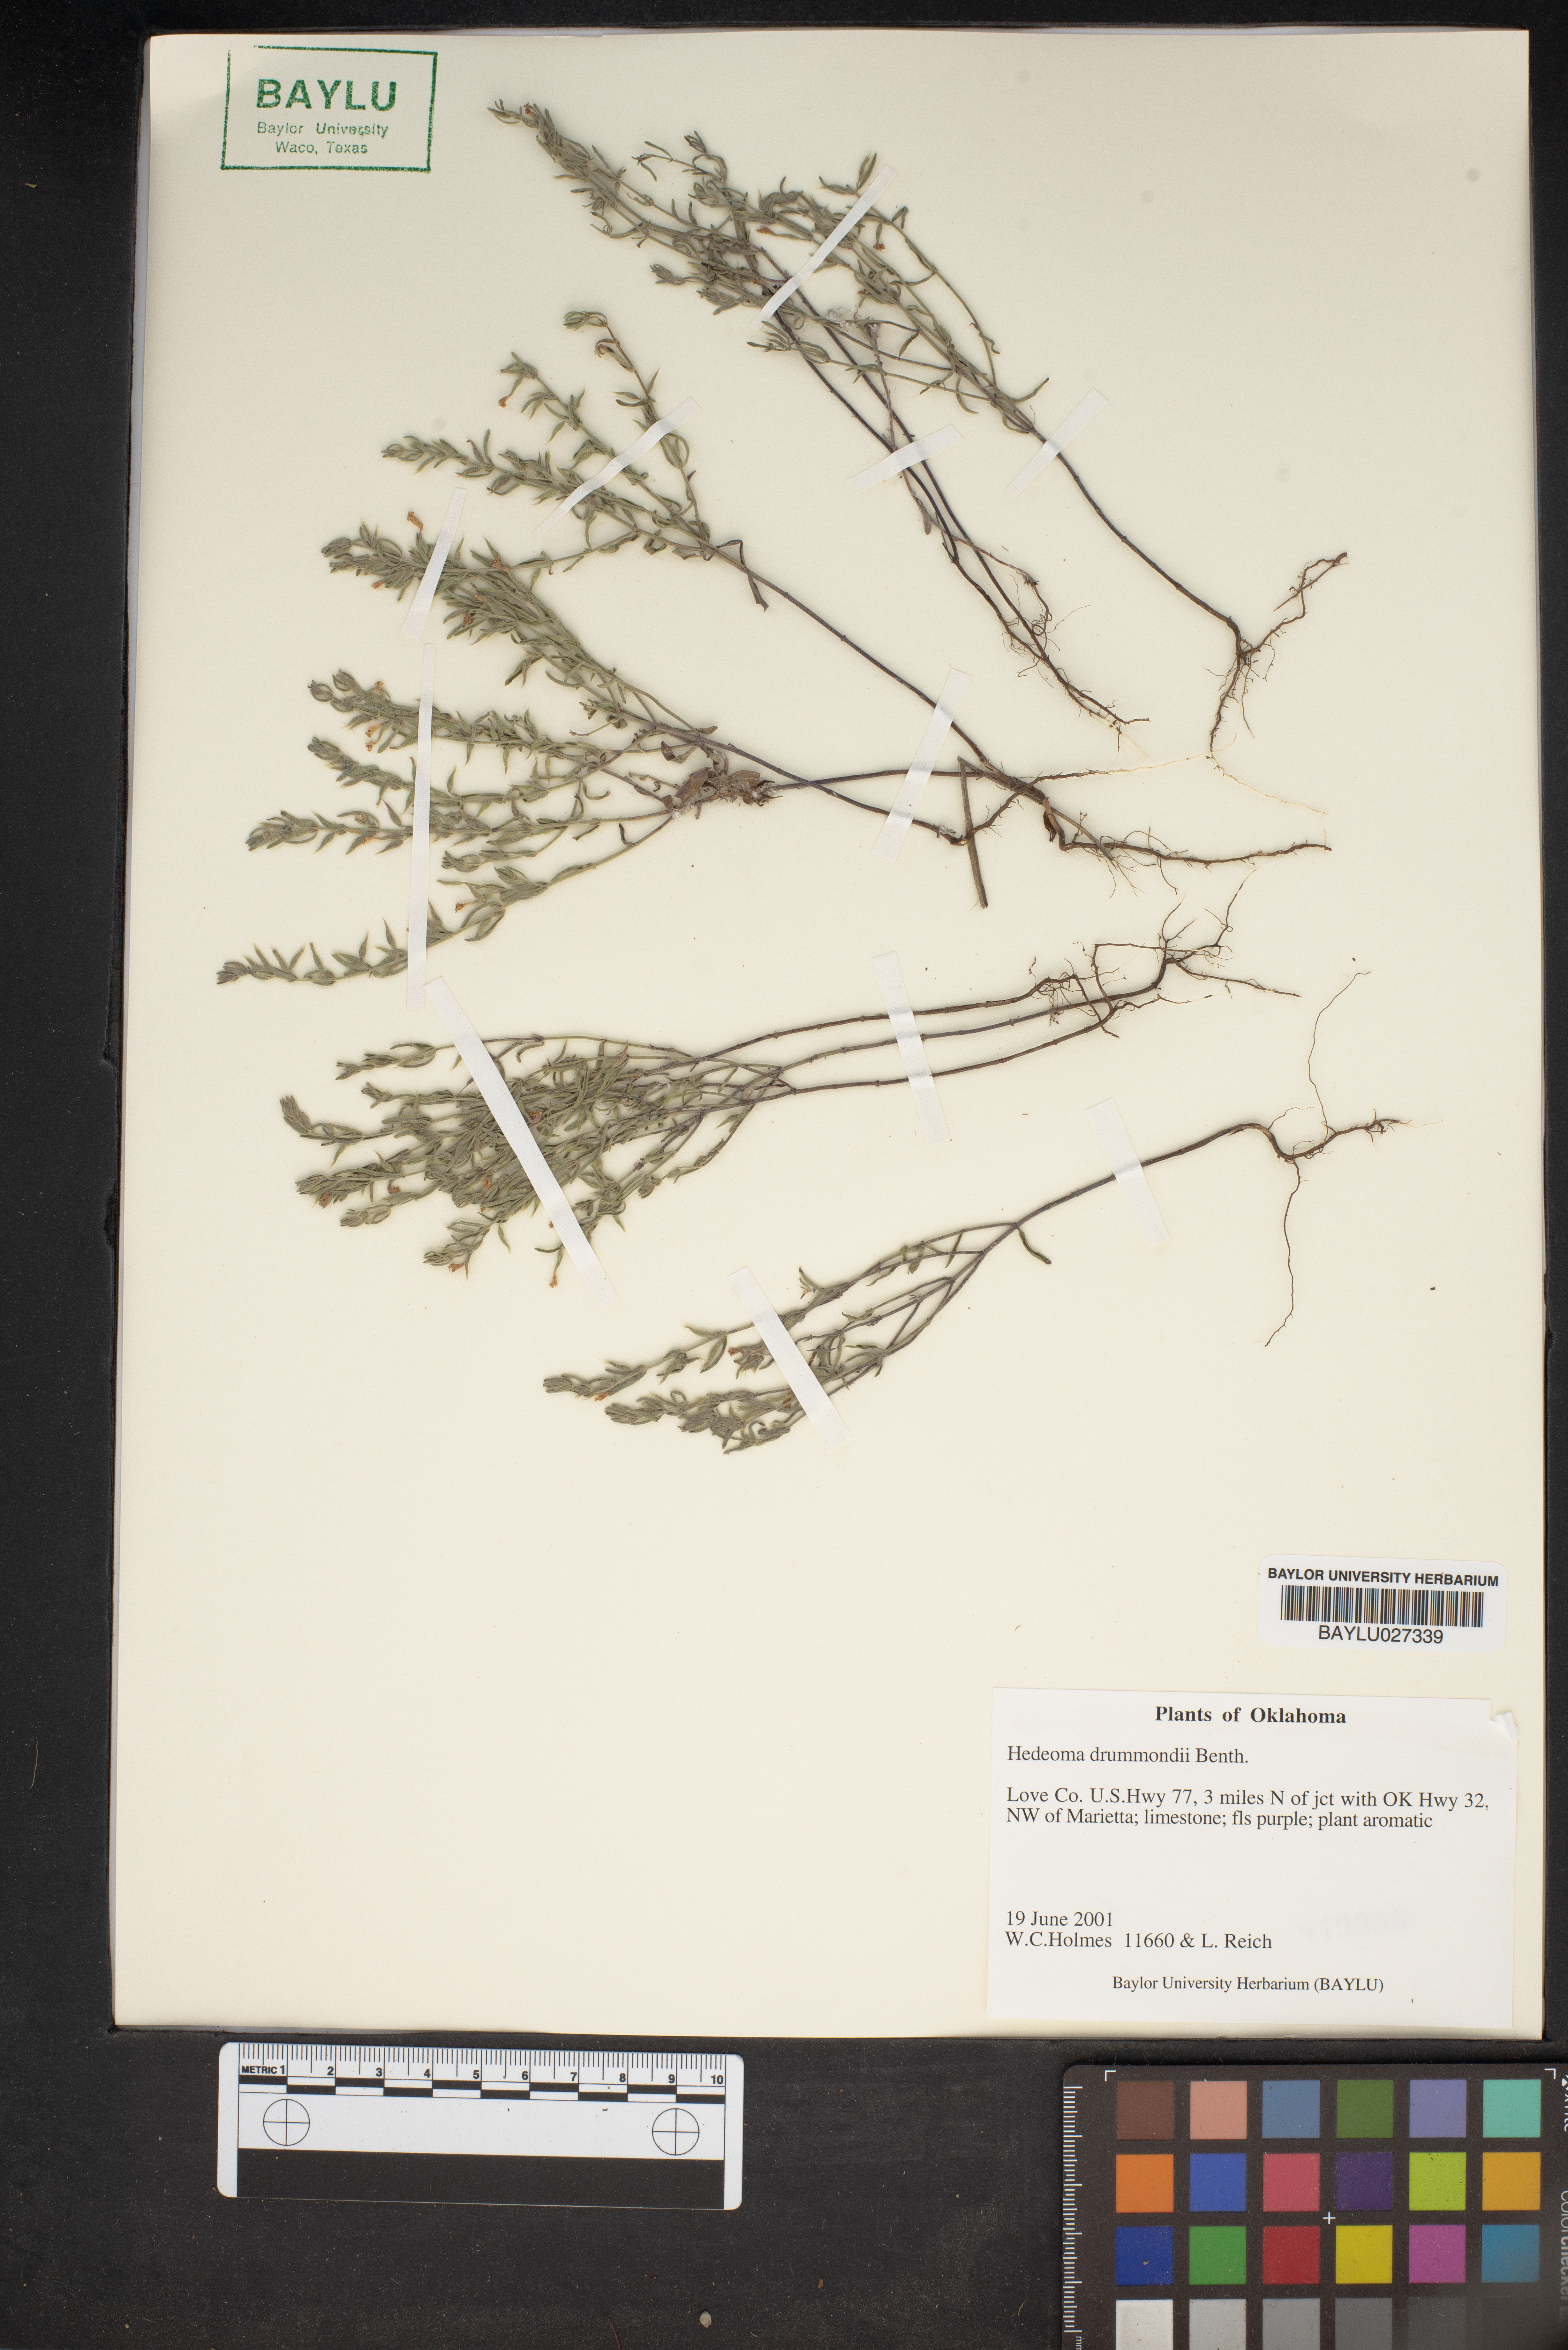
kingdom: Plantae
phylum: Tracheophyta
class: Magnoliopsida
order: Lamiales
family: Lamiaceae
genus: Hedeoma
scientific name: Hedeoma drummondii
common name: New mexico pennyroyal
